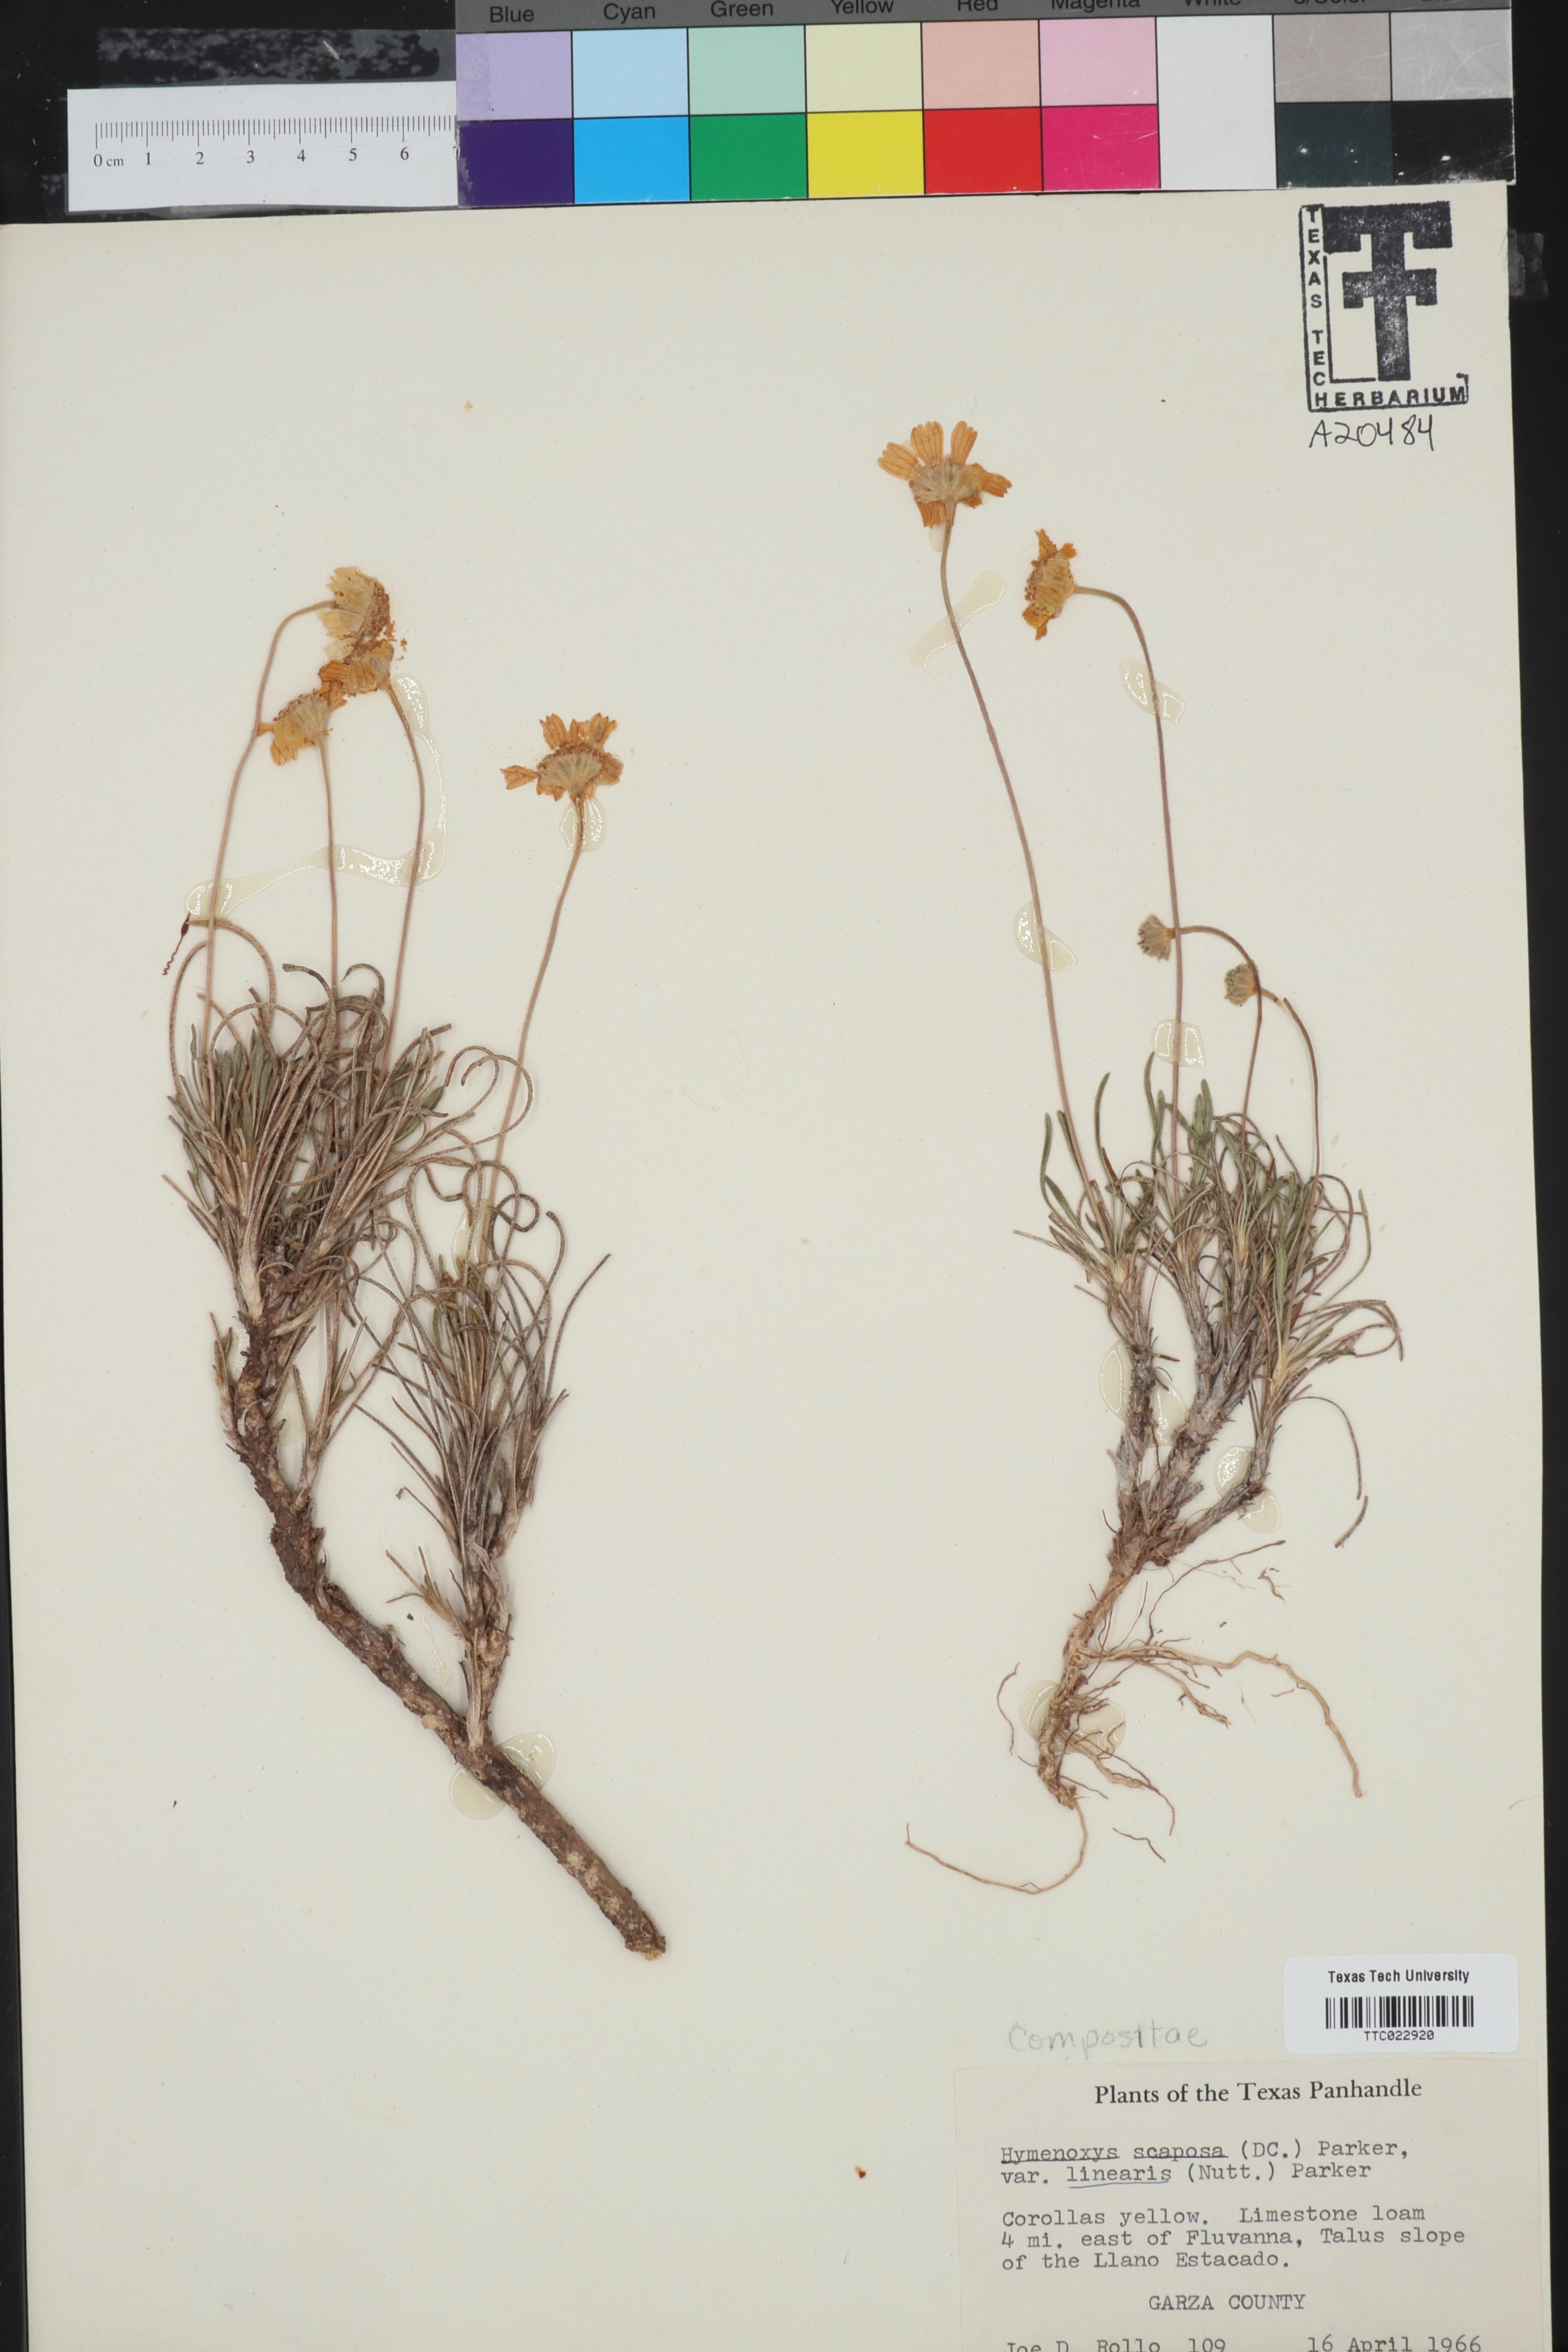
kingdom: Plantae
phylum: Tracheophyta
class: Magnoliopsida
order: Asterales
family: Asteraceae
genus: Tetraneuris
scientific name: Tetraneuris scaposa
